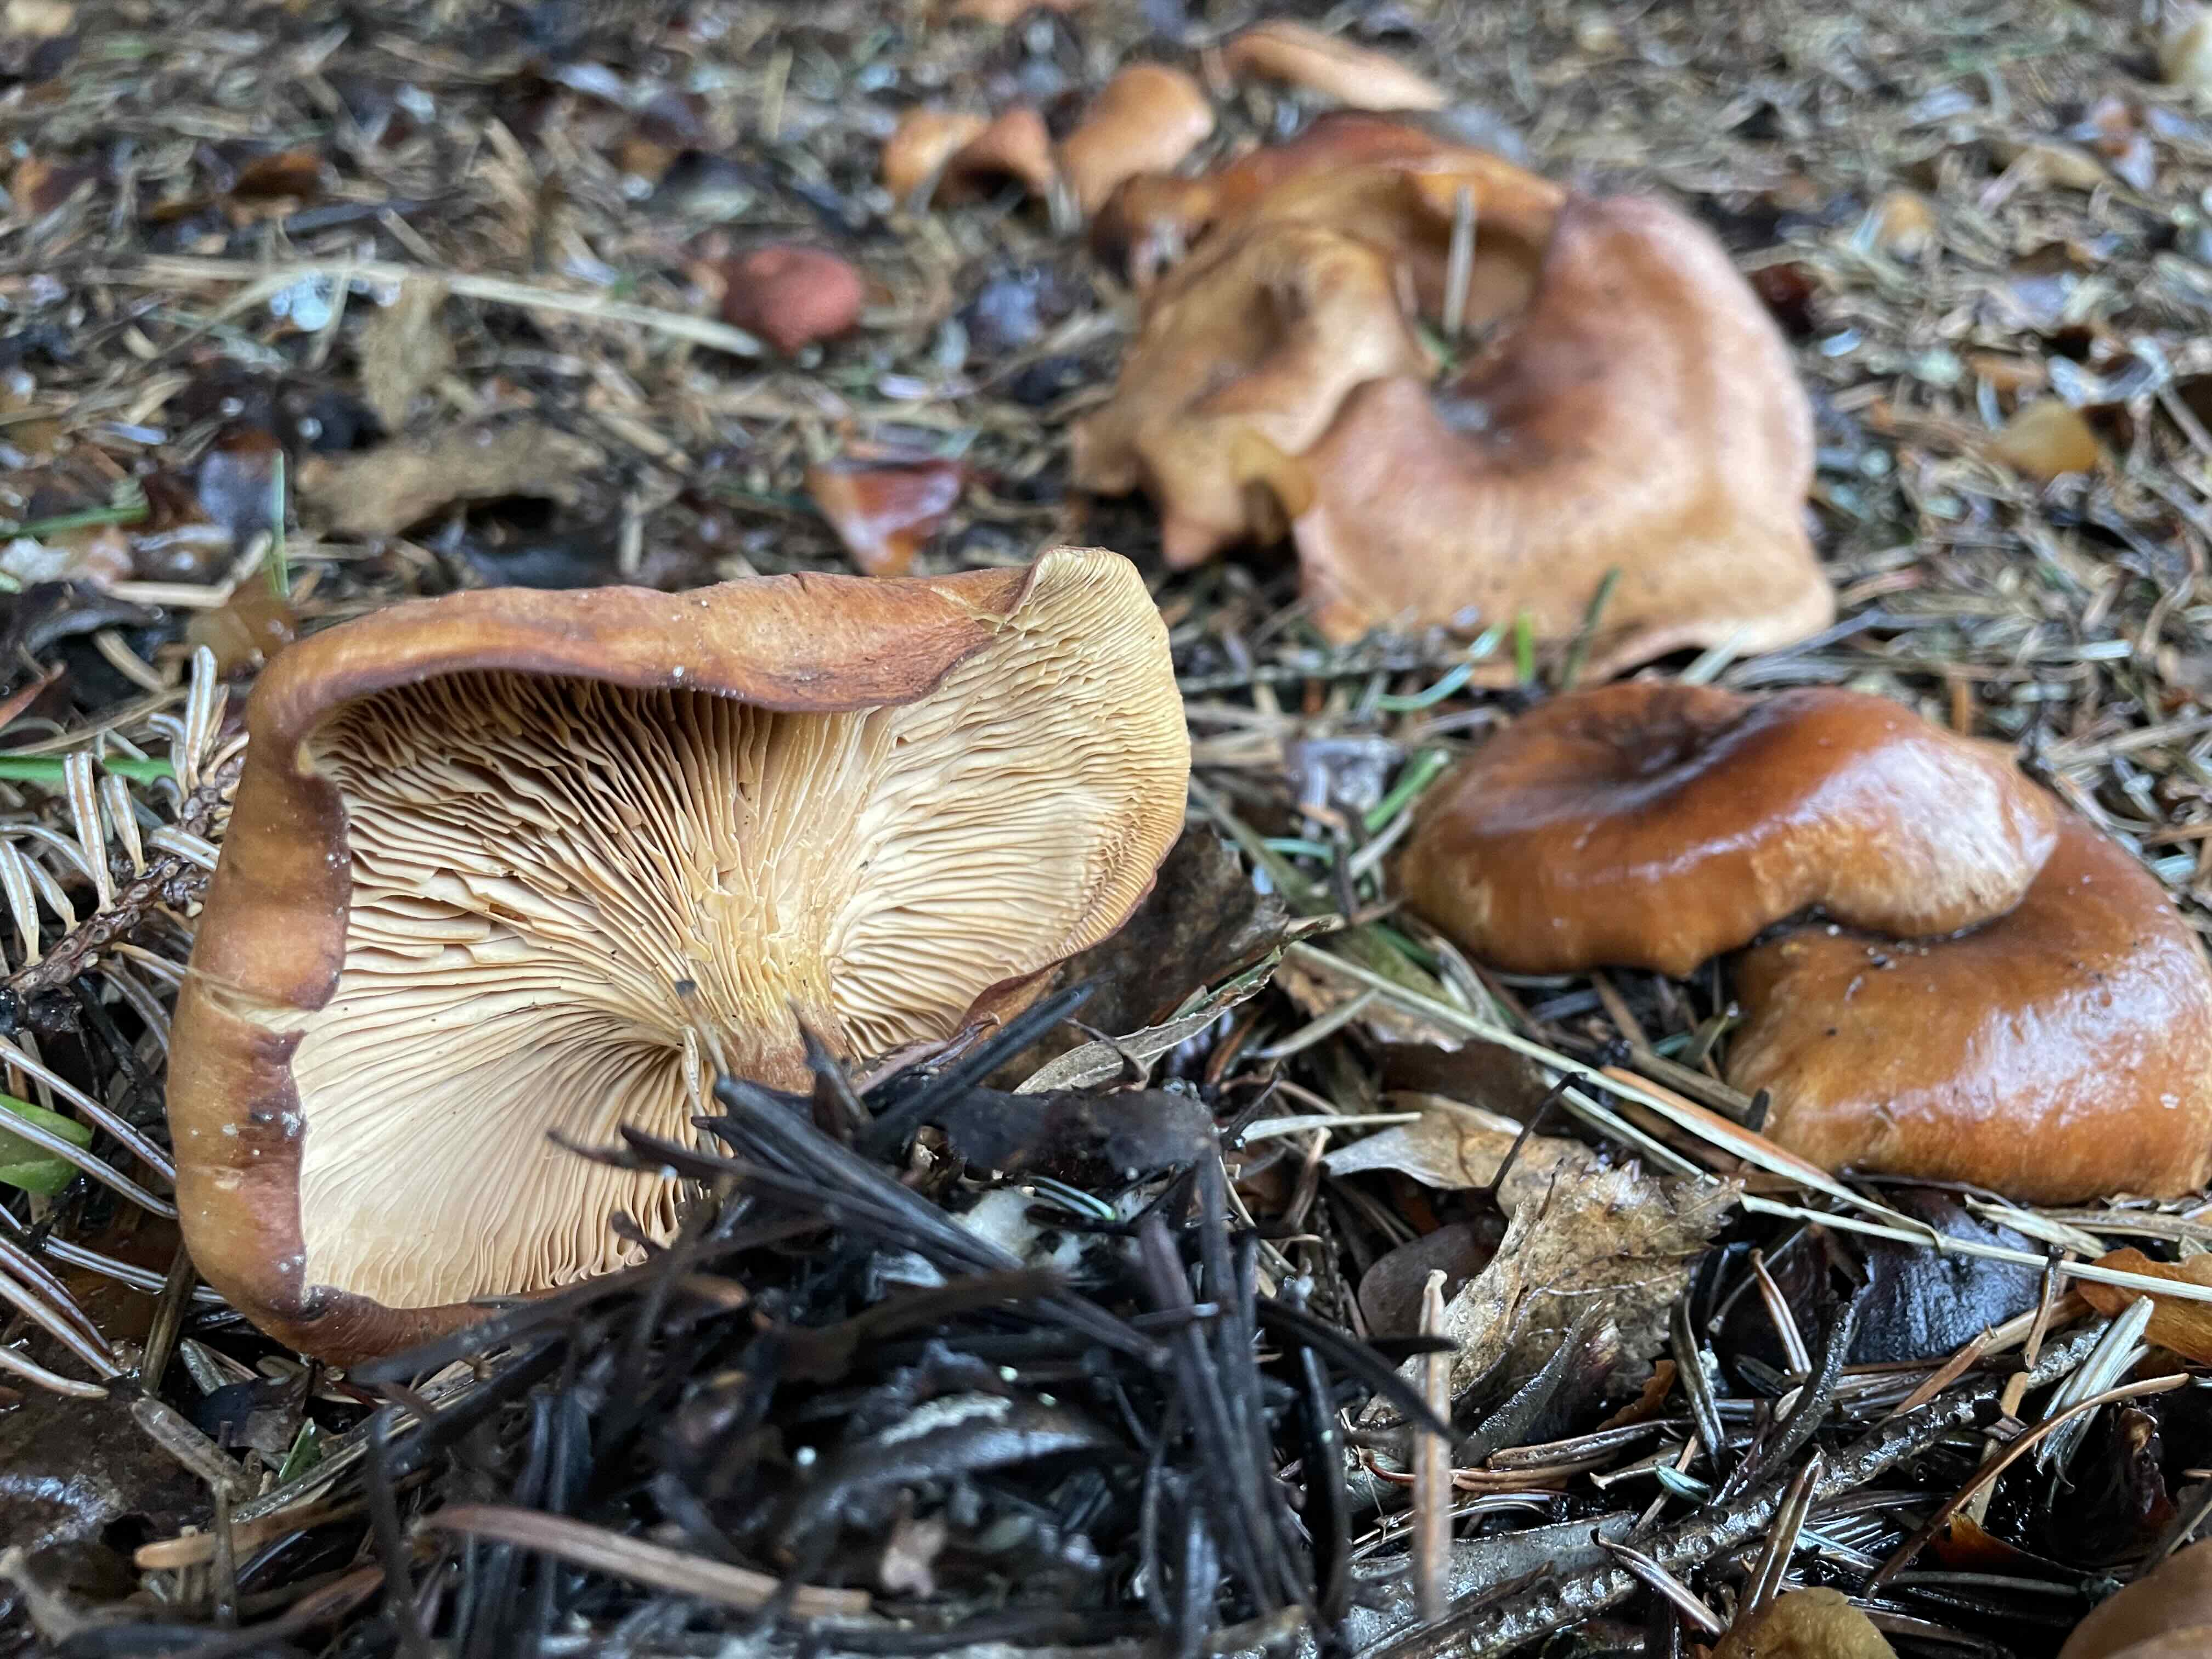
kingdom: Fungi
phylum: Basidiomycota
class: Agaricomycetes
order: Agaricales
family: Tricholomataceae
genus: Paralepista
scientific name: Paralepista flaccida
